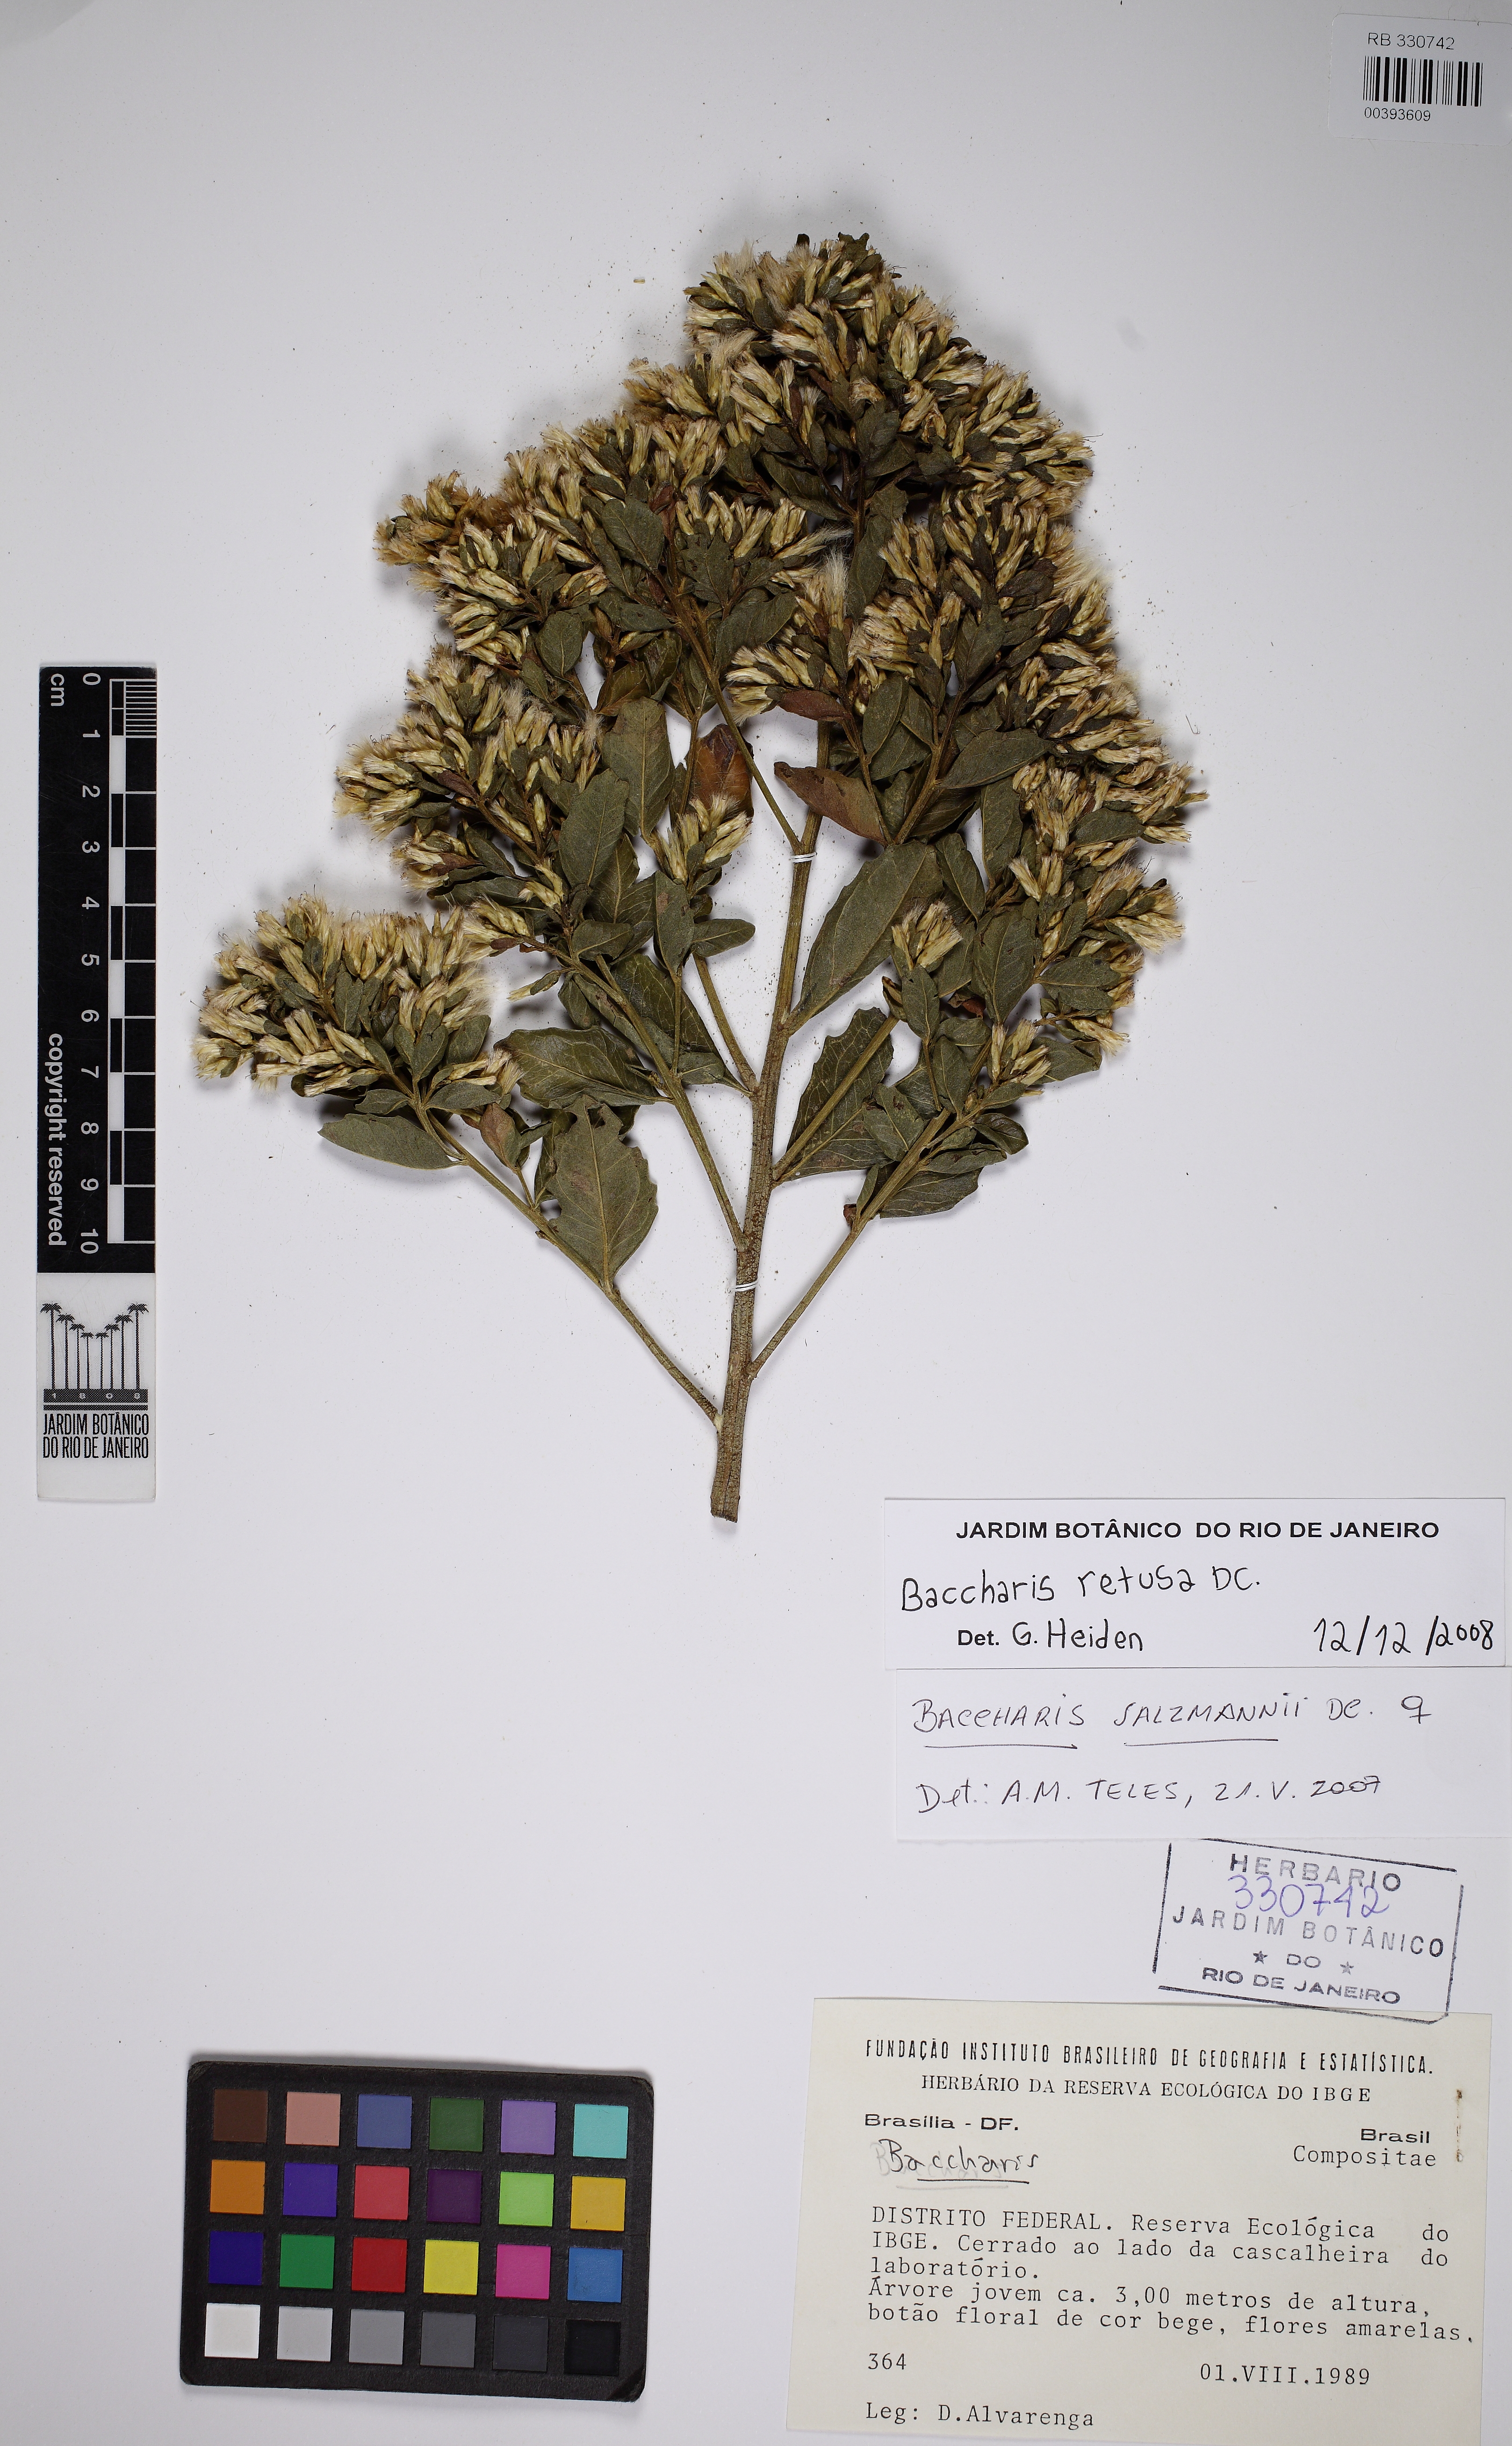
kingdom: Plantae
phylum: Tracheophyta
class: Magnoliopsida
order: Asterales
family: Asteraceae
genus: Baccharis
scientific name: Baccharis retusa
